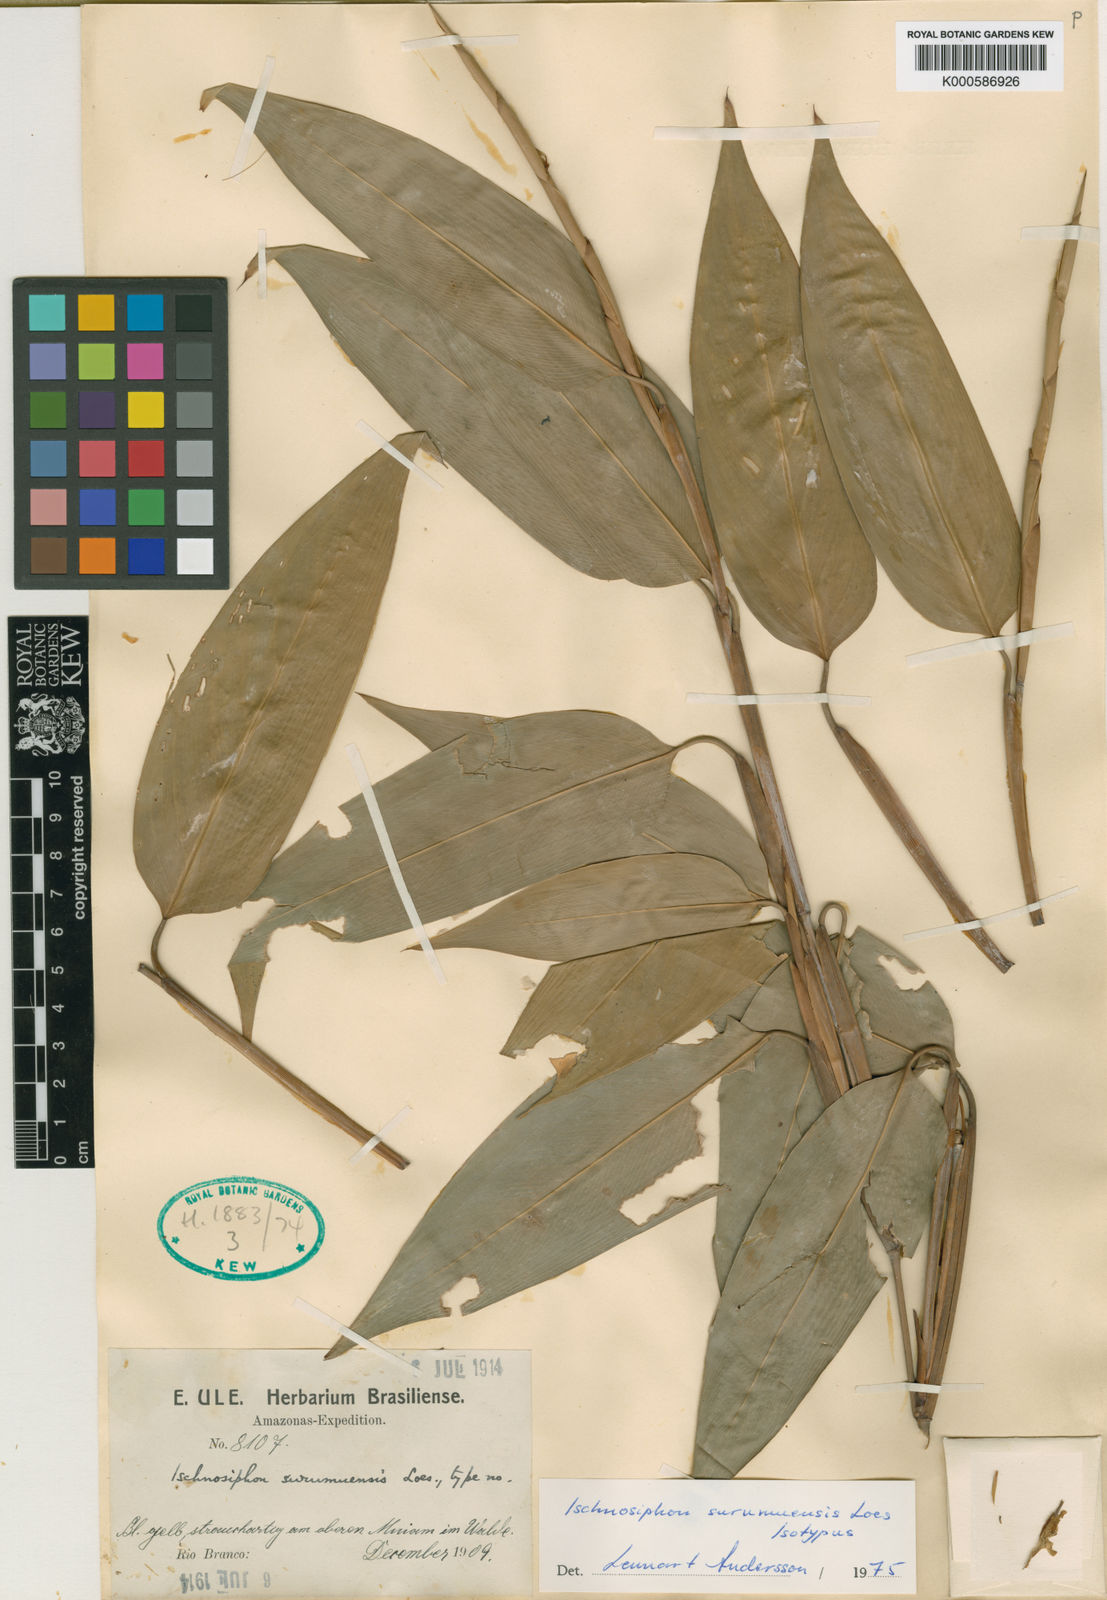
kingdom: Plantae
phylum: Tracheophyta
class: Liliopsida
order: Zingiberales
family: Marantaceae
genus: Ischnosiphon
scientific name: Ischnosiphon surumuensis
